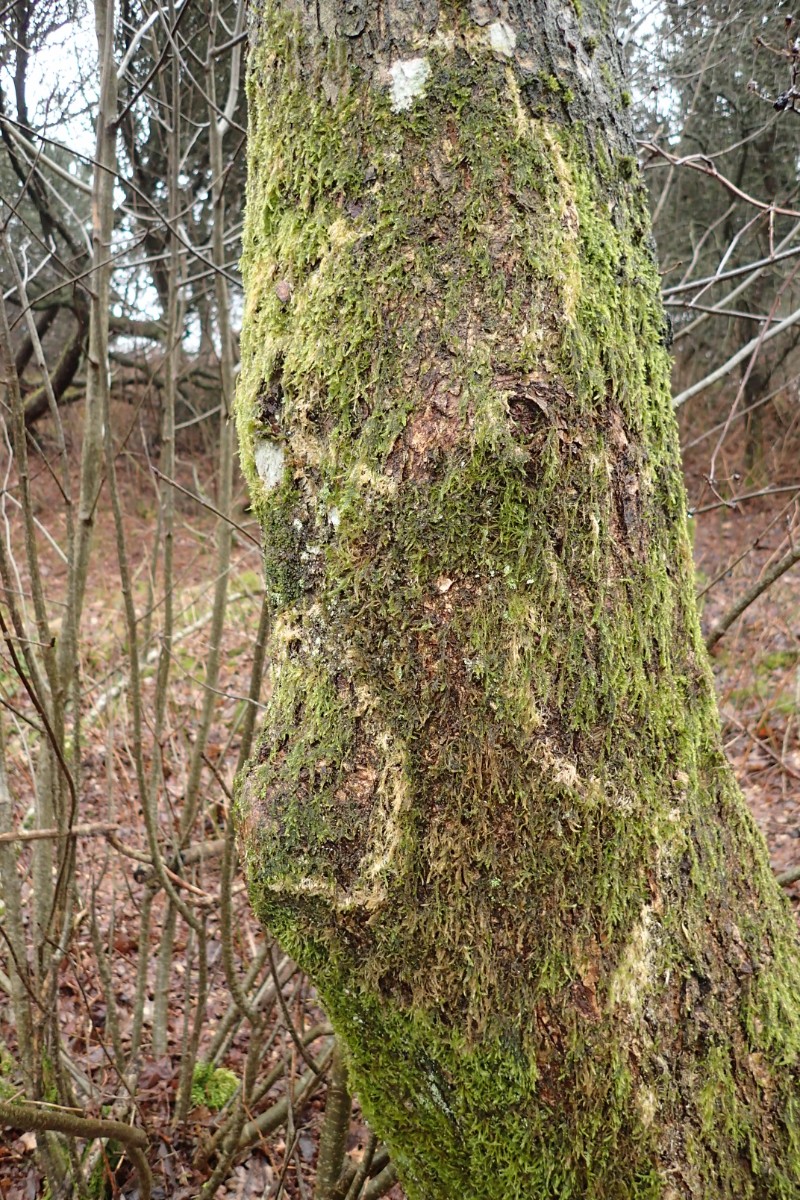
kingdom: Fungi
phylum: Basidiomycota
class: Agaricomycetes
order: Agaricales
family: Chromocyphellaceae
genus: Chromocyphella
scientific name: Chromocyphella muscicola
